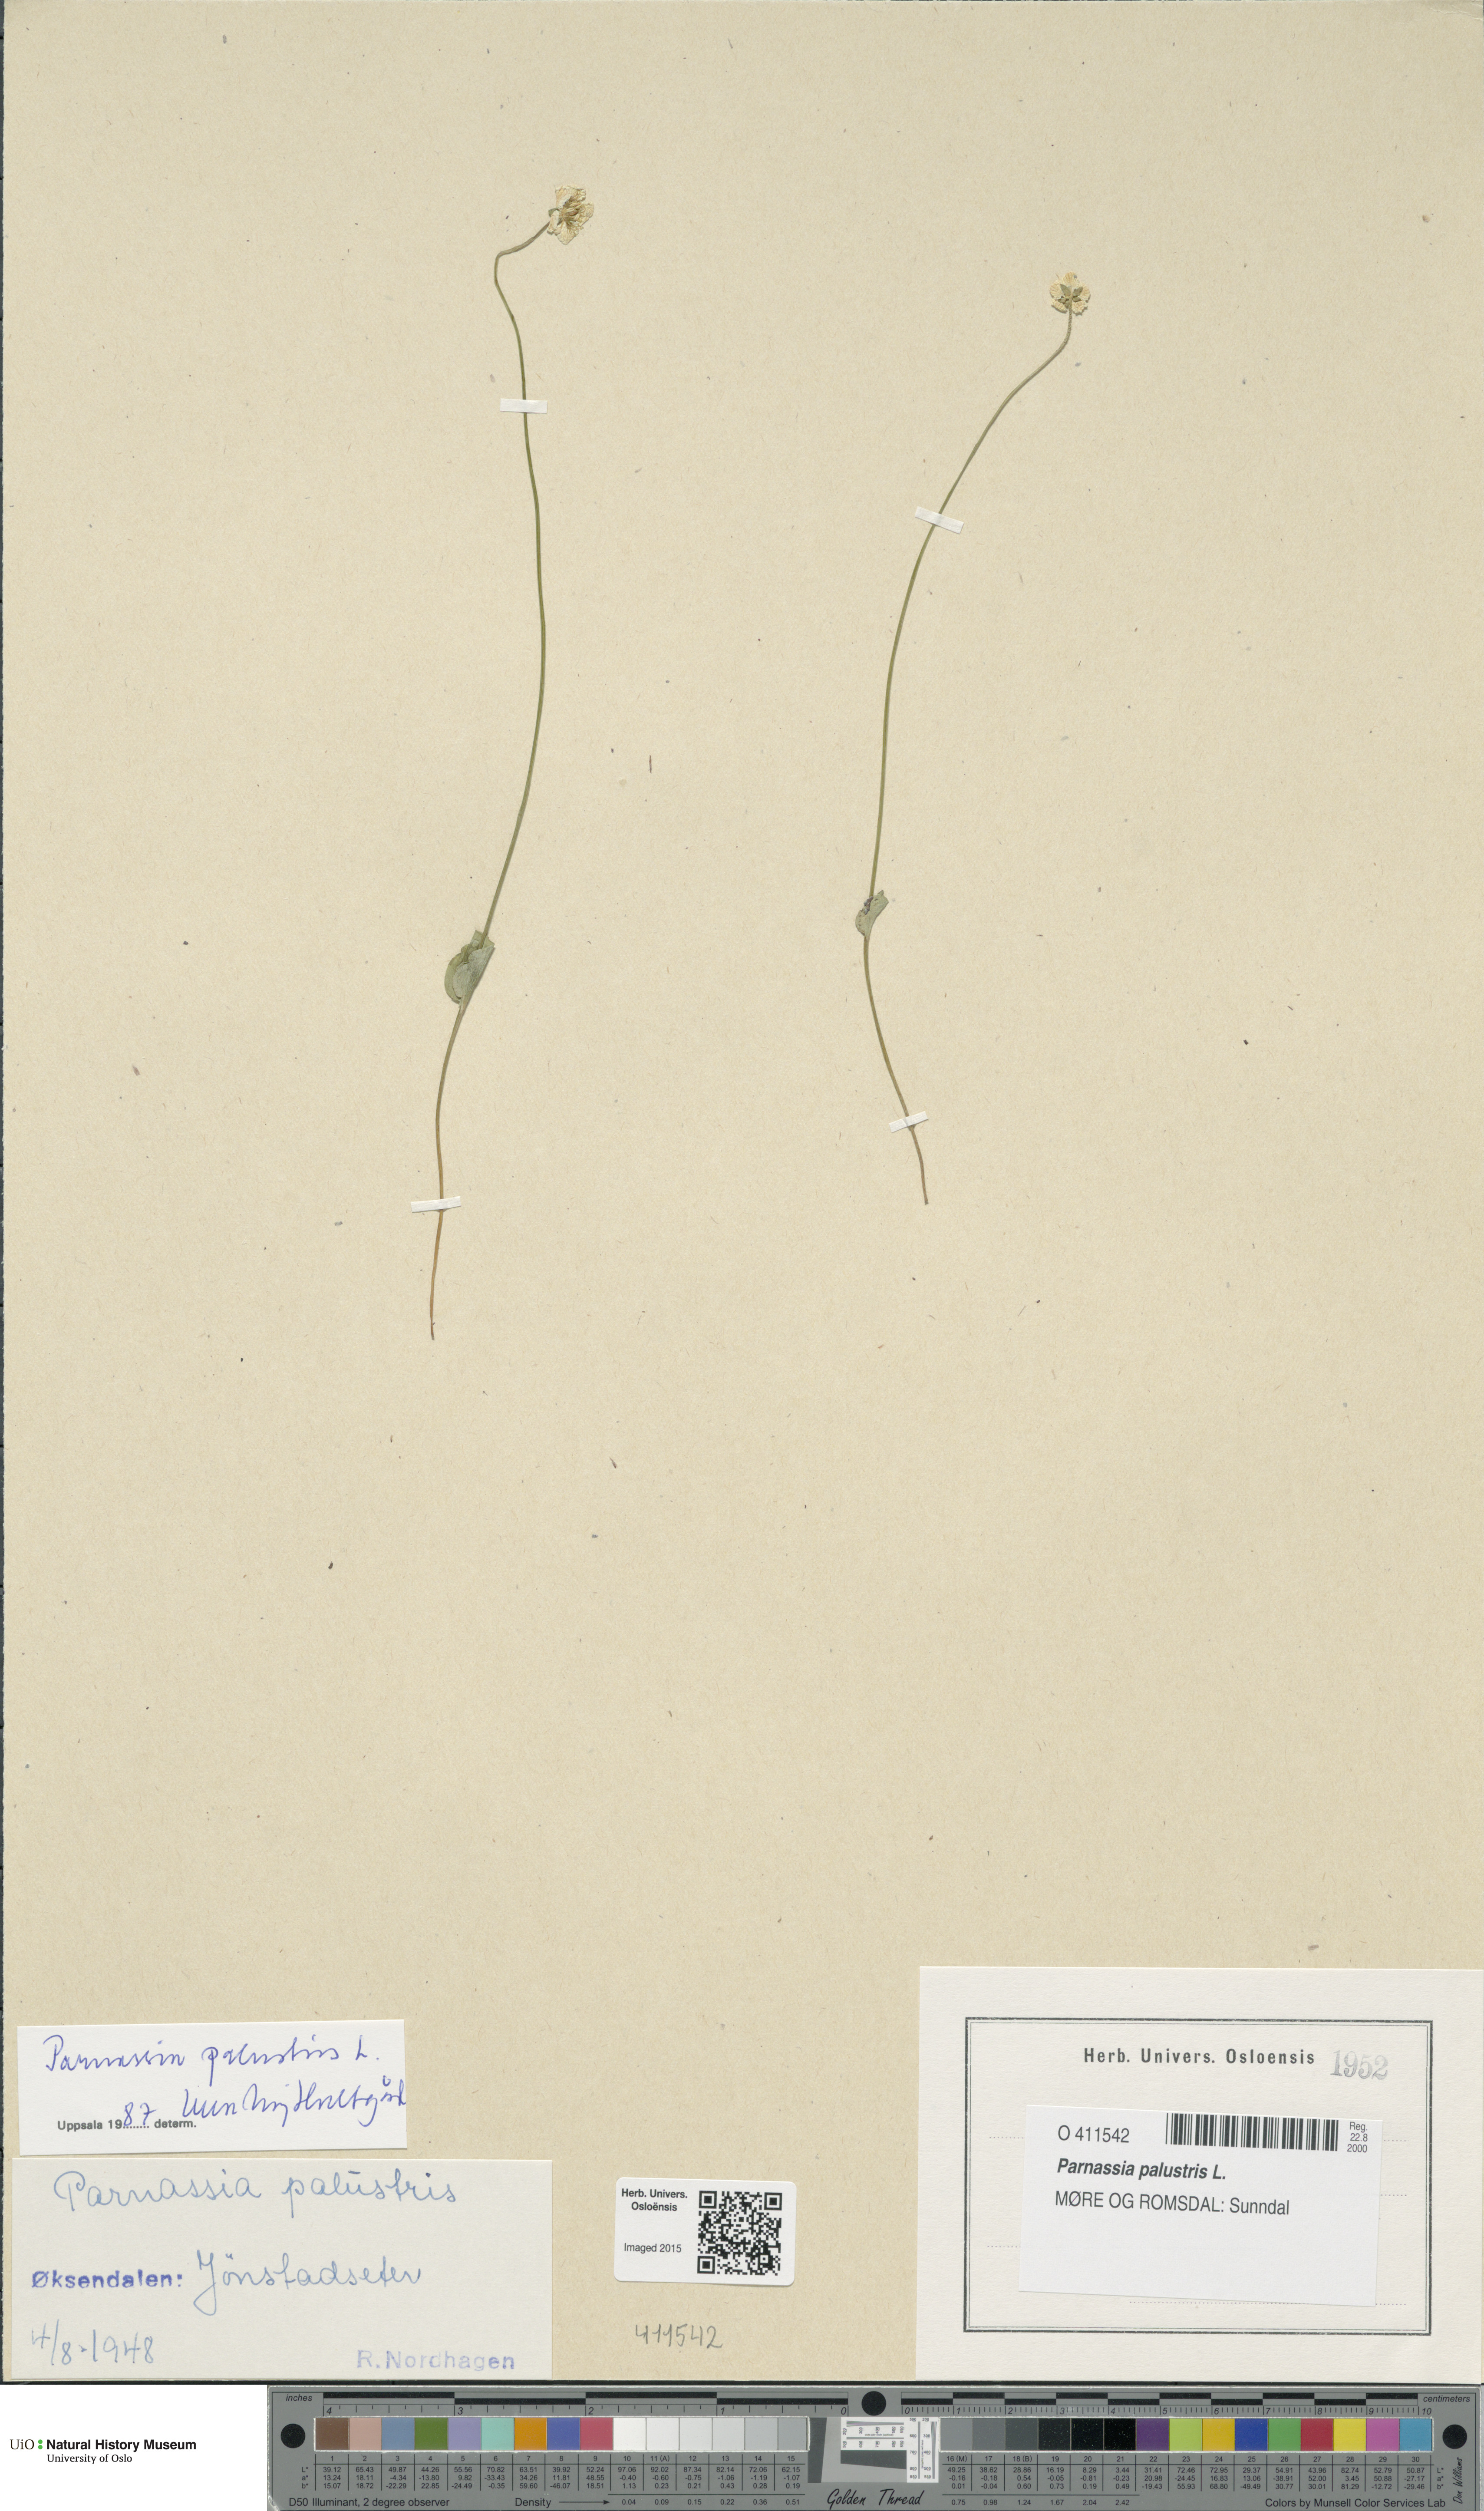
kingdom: Plantae
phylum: Tracheophyta
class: Magnoliopsida
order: Celastrales
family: Parnassiaceae
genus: Parnassia
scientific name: Parnassia palustris
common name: Grass-of-parnassus
